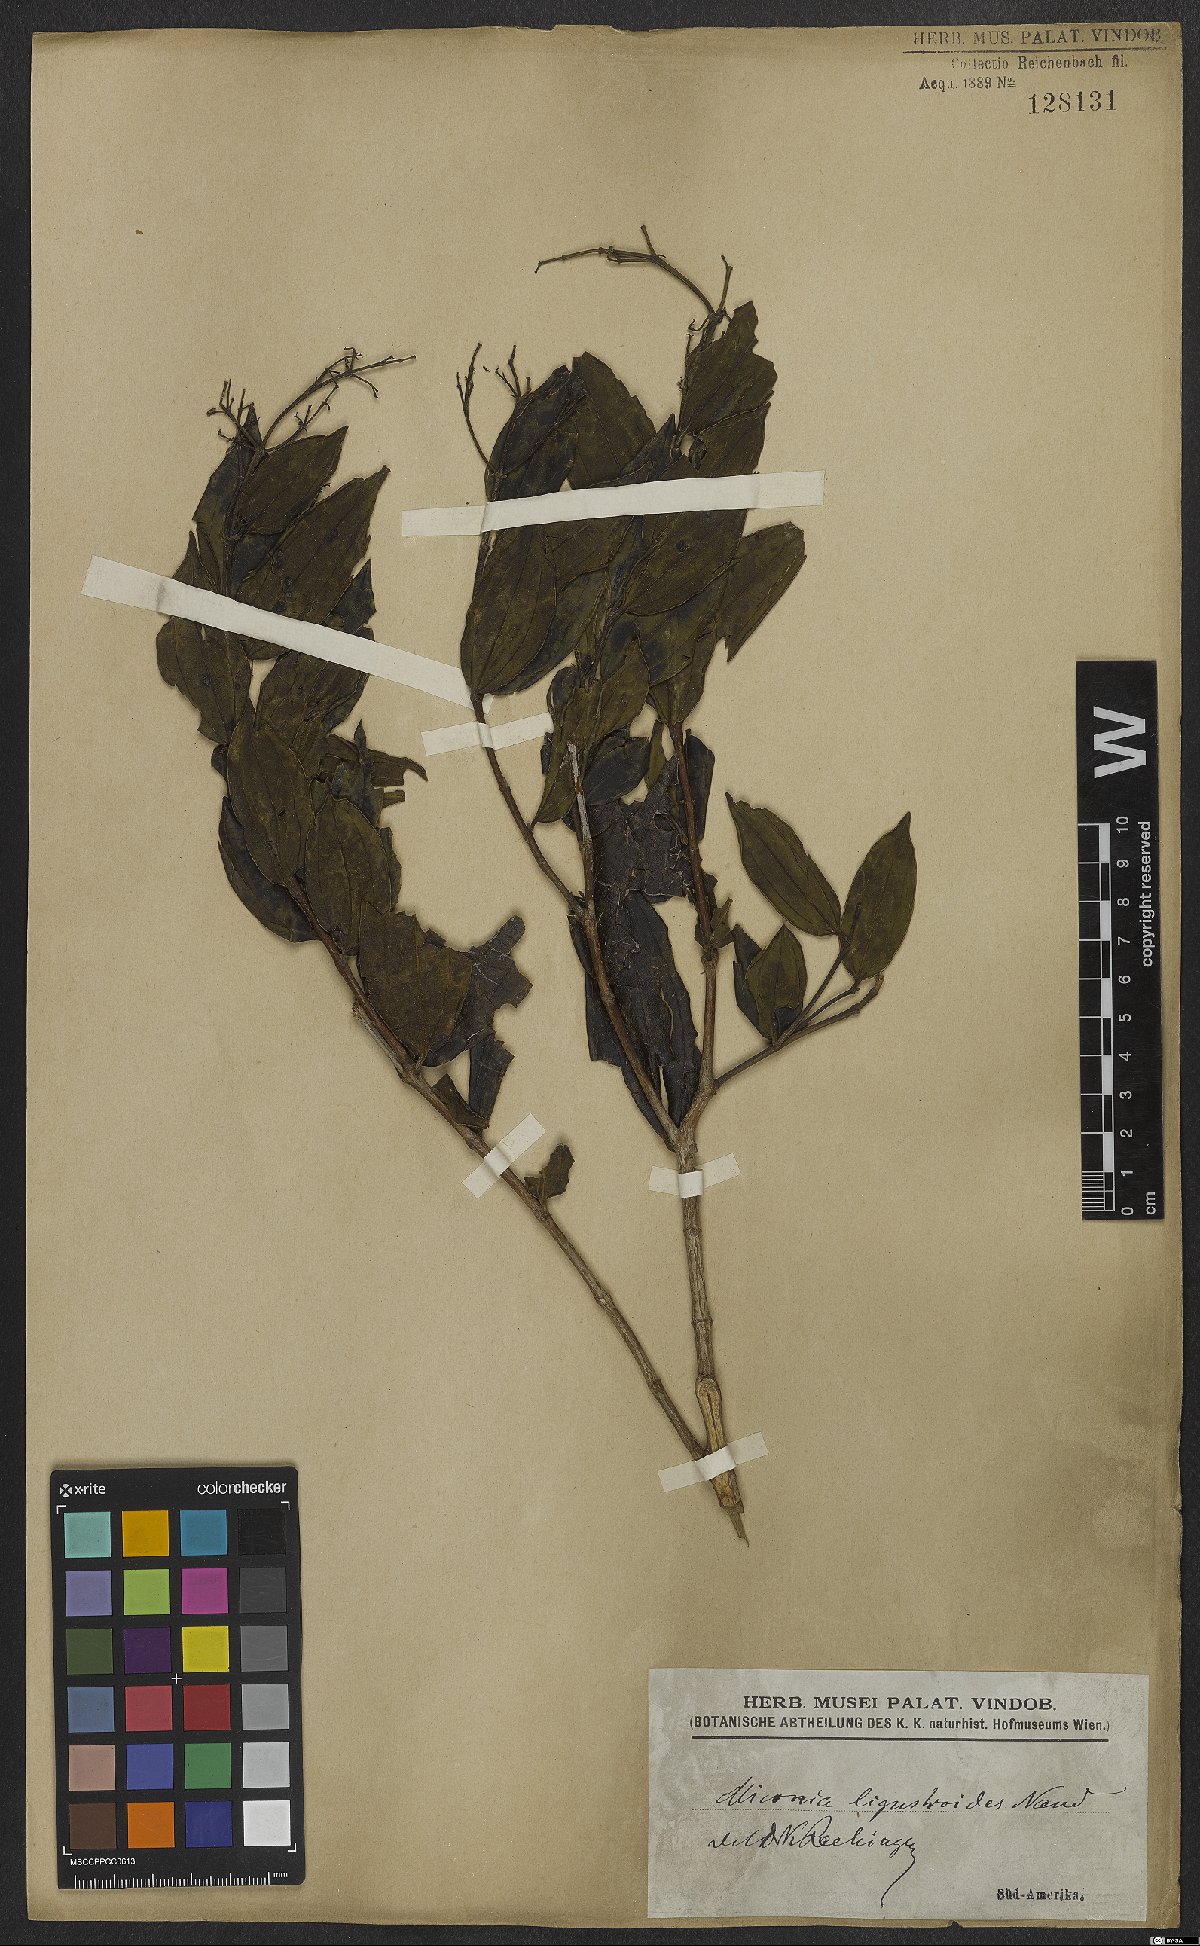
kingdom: Plantae
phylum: Tracheophyta
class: Magnoliopsida
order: Myrtales
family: Melastomataceae
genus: Miconia
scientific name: Miconia ligustroides
